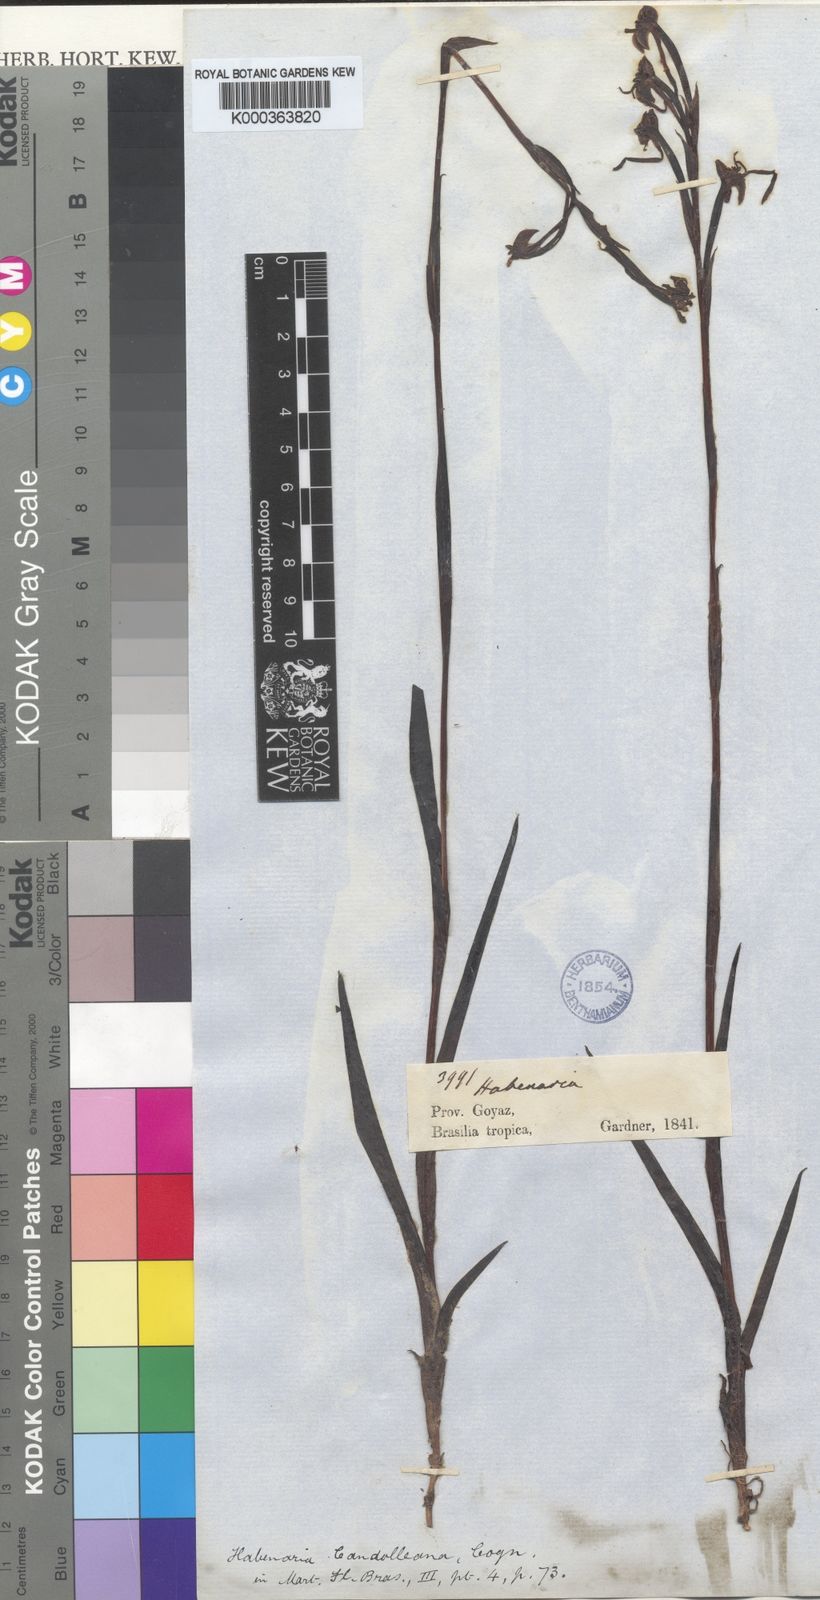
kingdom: Plantae
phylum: Tracheophyta
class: Liliopsida
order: Asparagales
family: Orchidaceae
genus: Habenaria
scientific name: Habenaria candolleana
